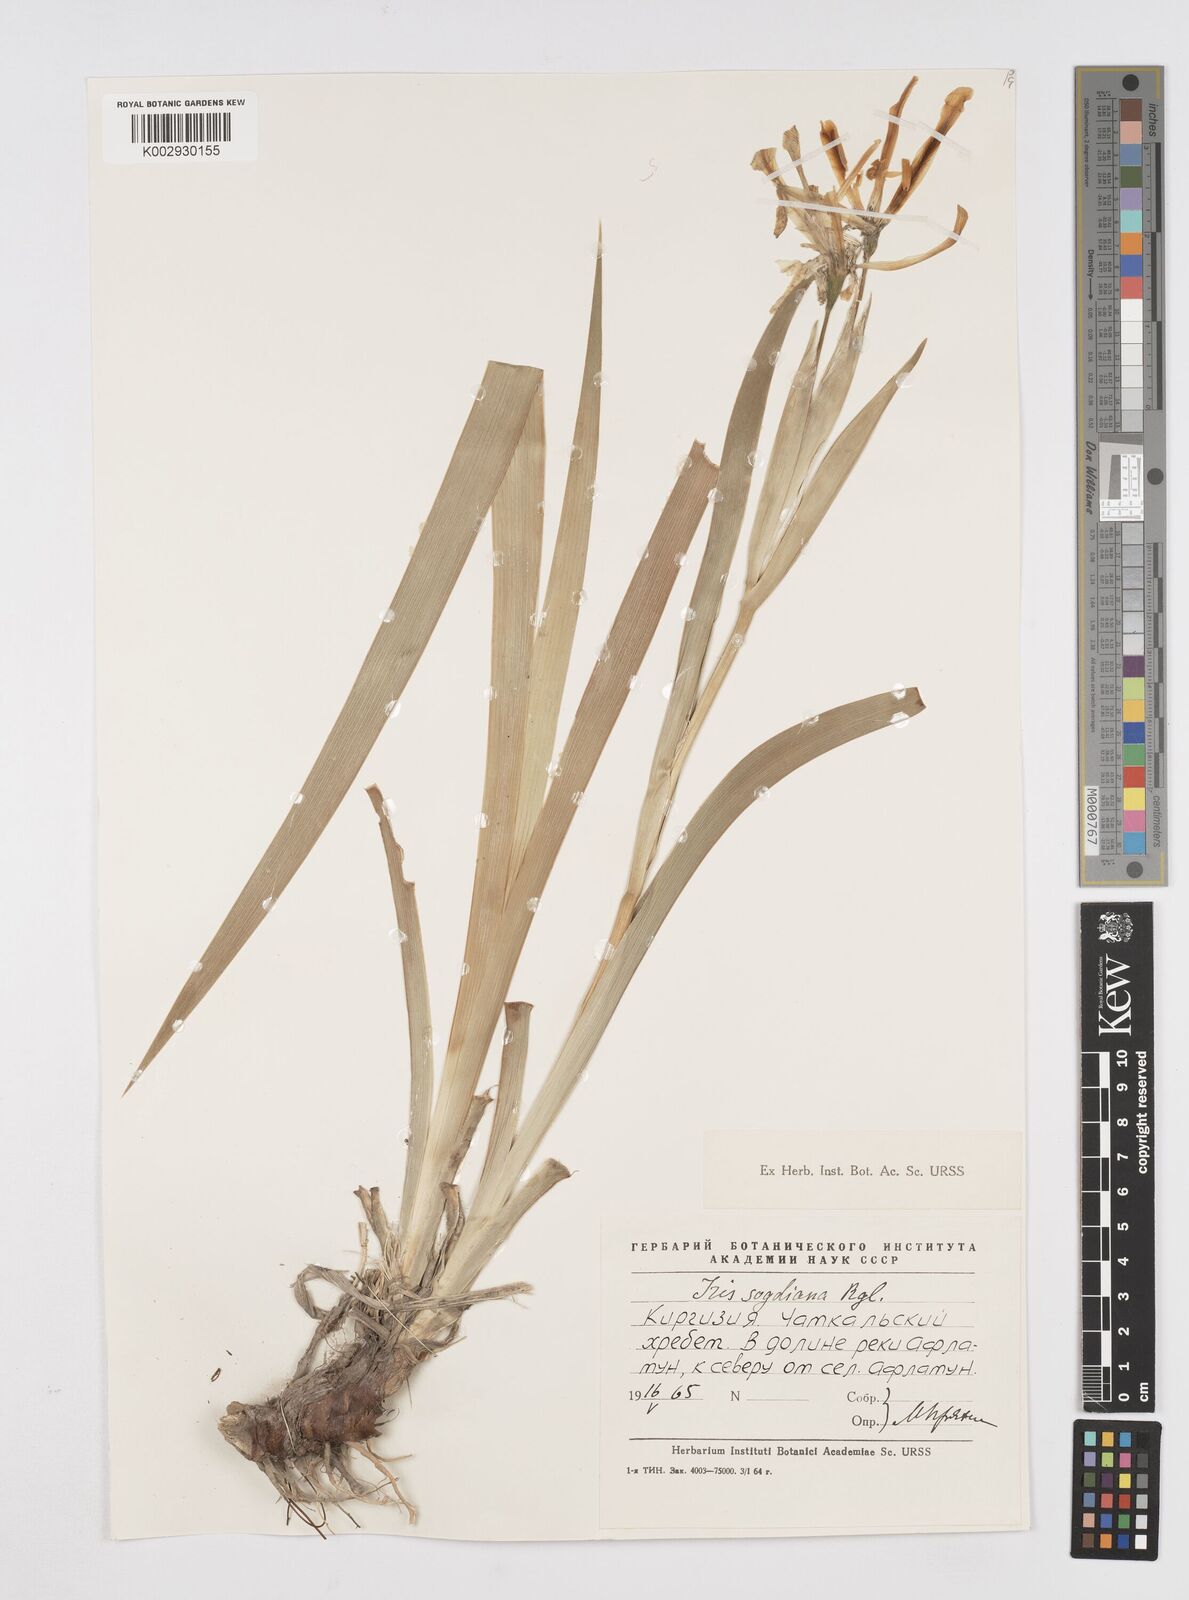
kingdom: Plantae
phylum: Tracheophyta
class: Liliopsida
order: Asparagales
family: Iridaceae
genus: Iris
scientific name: Iris halophila
